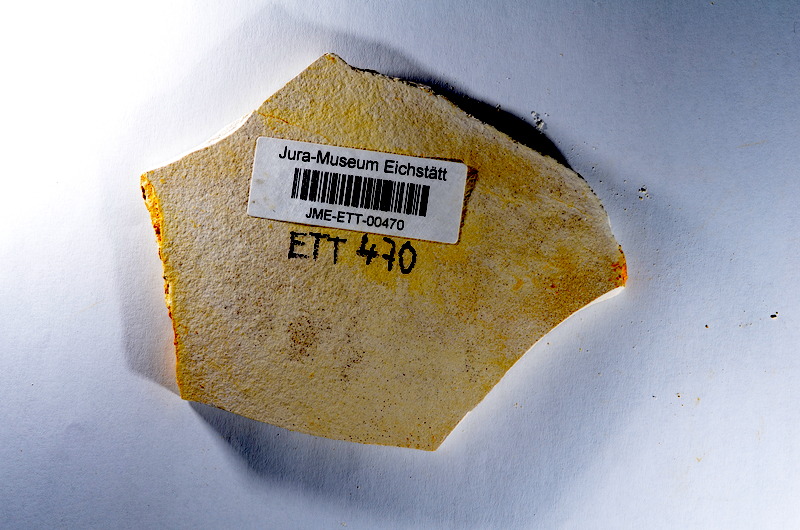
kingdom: Animalia
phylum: Chordata
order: Salmoniformes
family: Orthogonikleithridae
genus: Orthogonikleithrus
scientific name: Orthogonikleithrus hoelli
